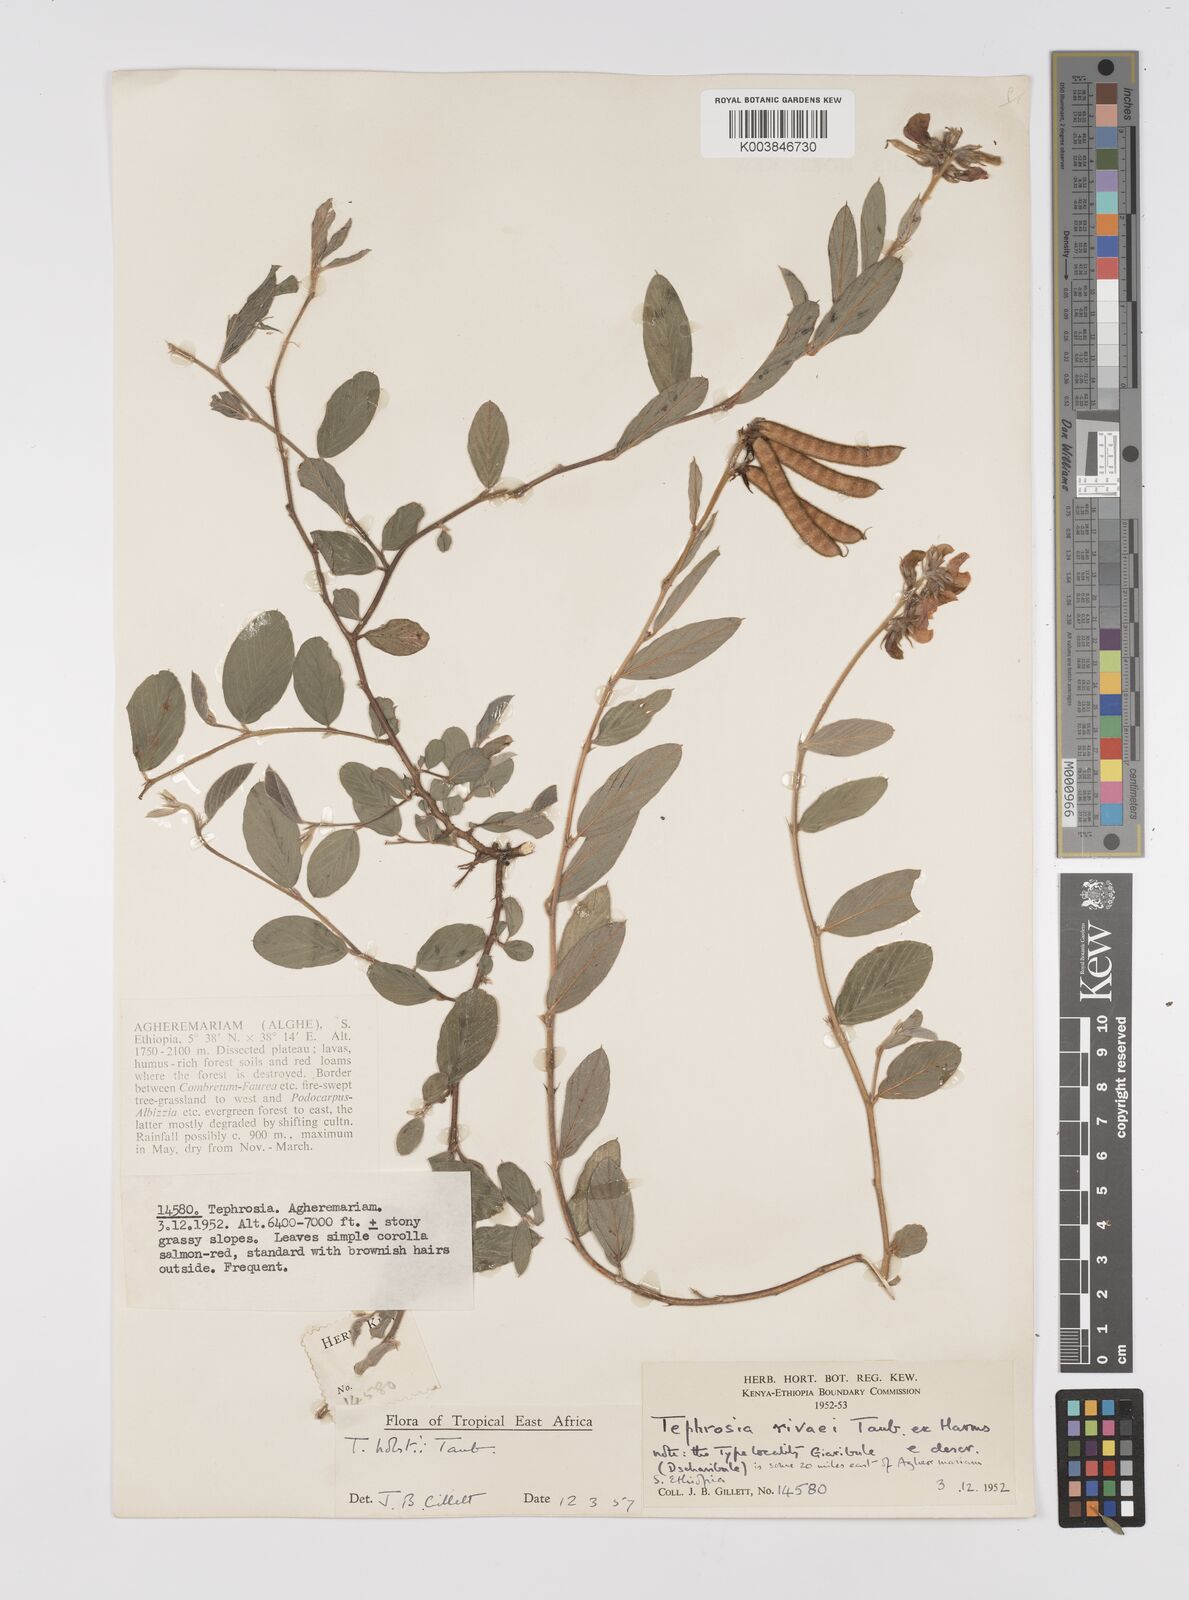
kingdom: Plantae
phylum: Tracheophyta
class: Magnoliopsida
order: Fabales
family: Fabaceae
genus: Tephrosia
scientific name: Tephrosia holstii
